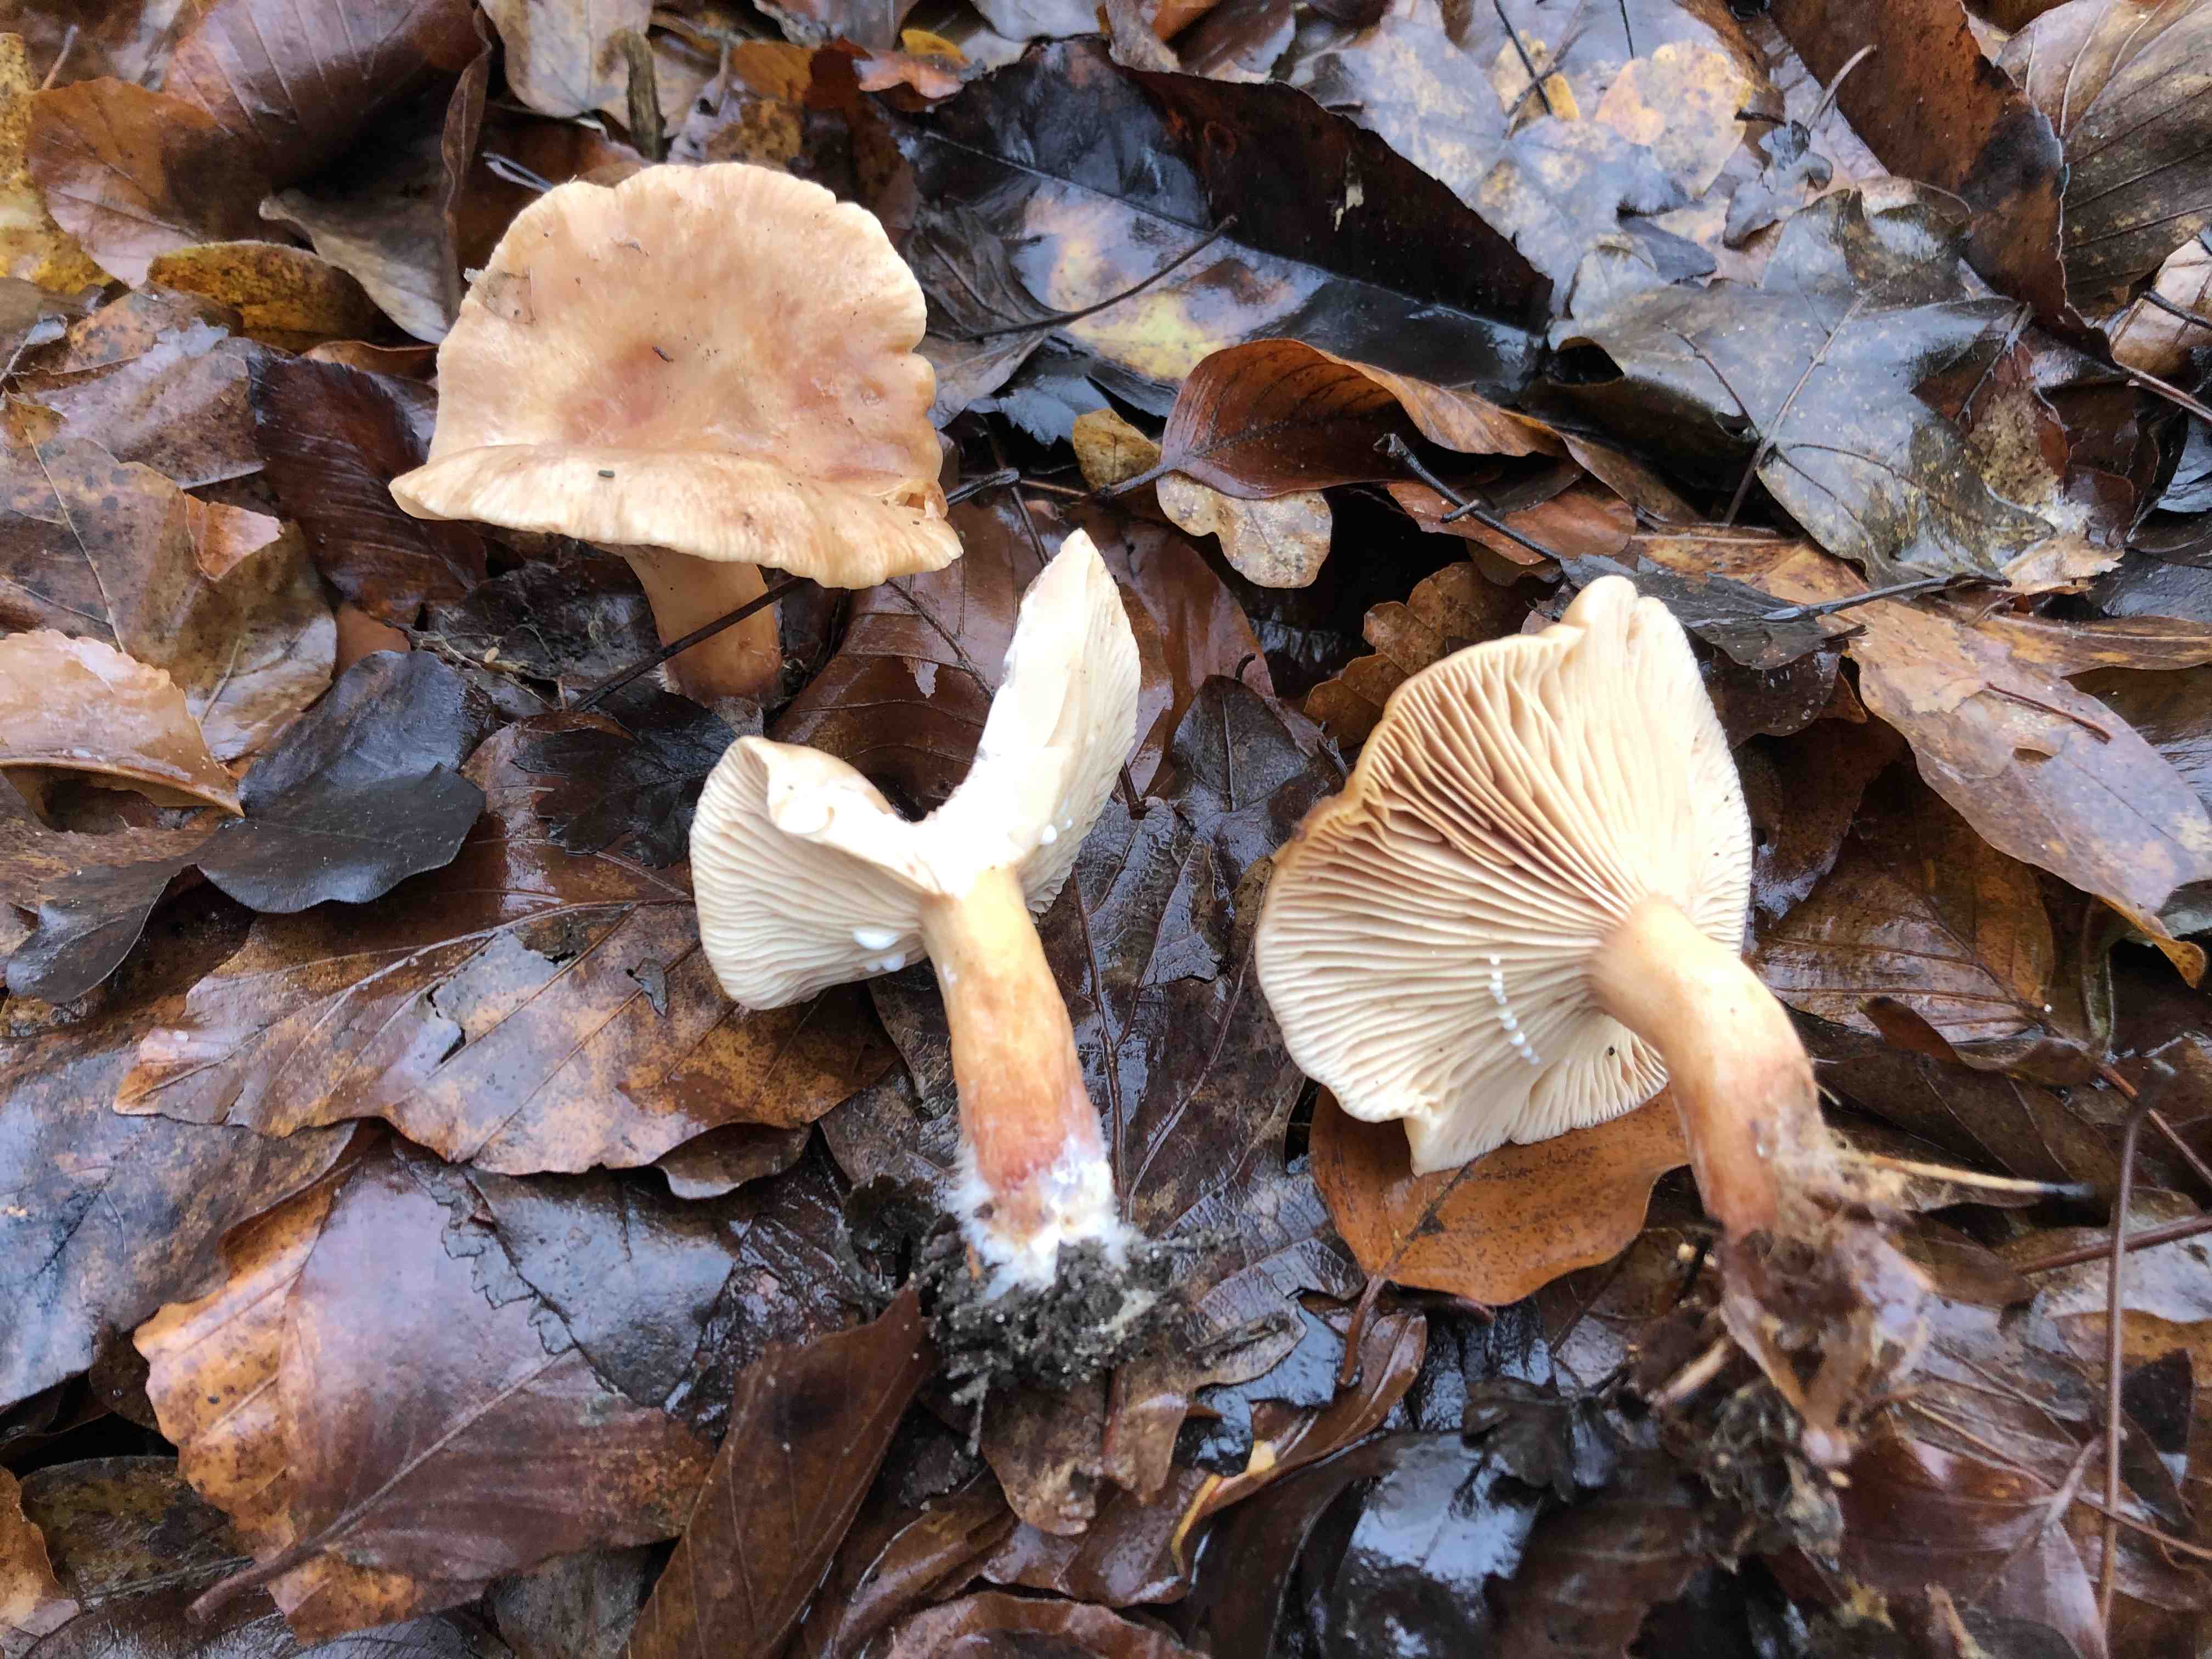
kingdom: Fungi
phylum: Basidiomycota
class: Agaricomycetes
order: Russulales
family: Russulaceae
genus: Lactarius
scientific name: Lactarius subdulcis
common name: sødlig mælkehat
